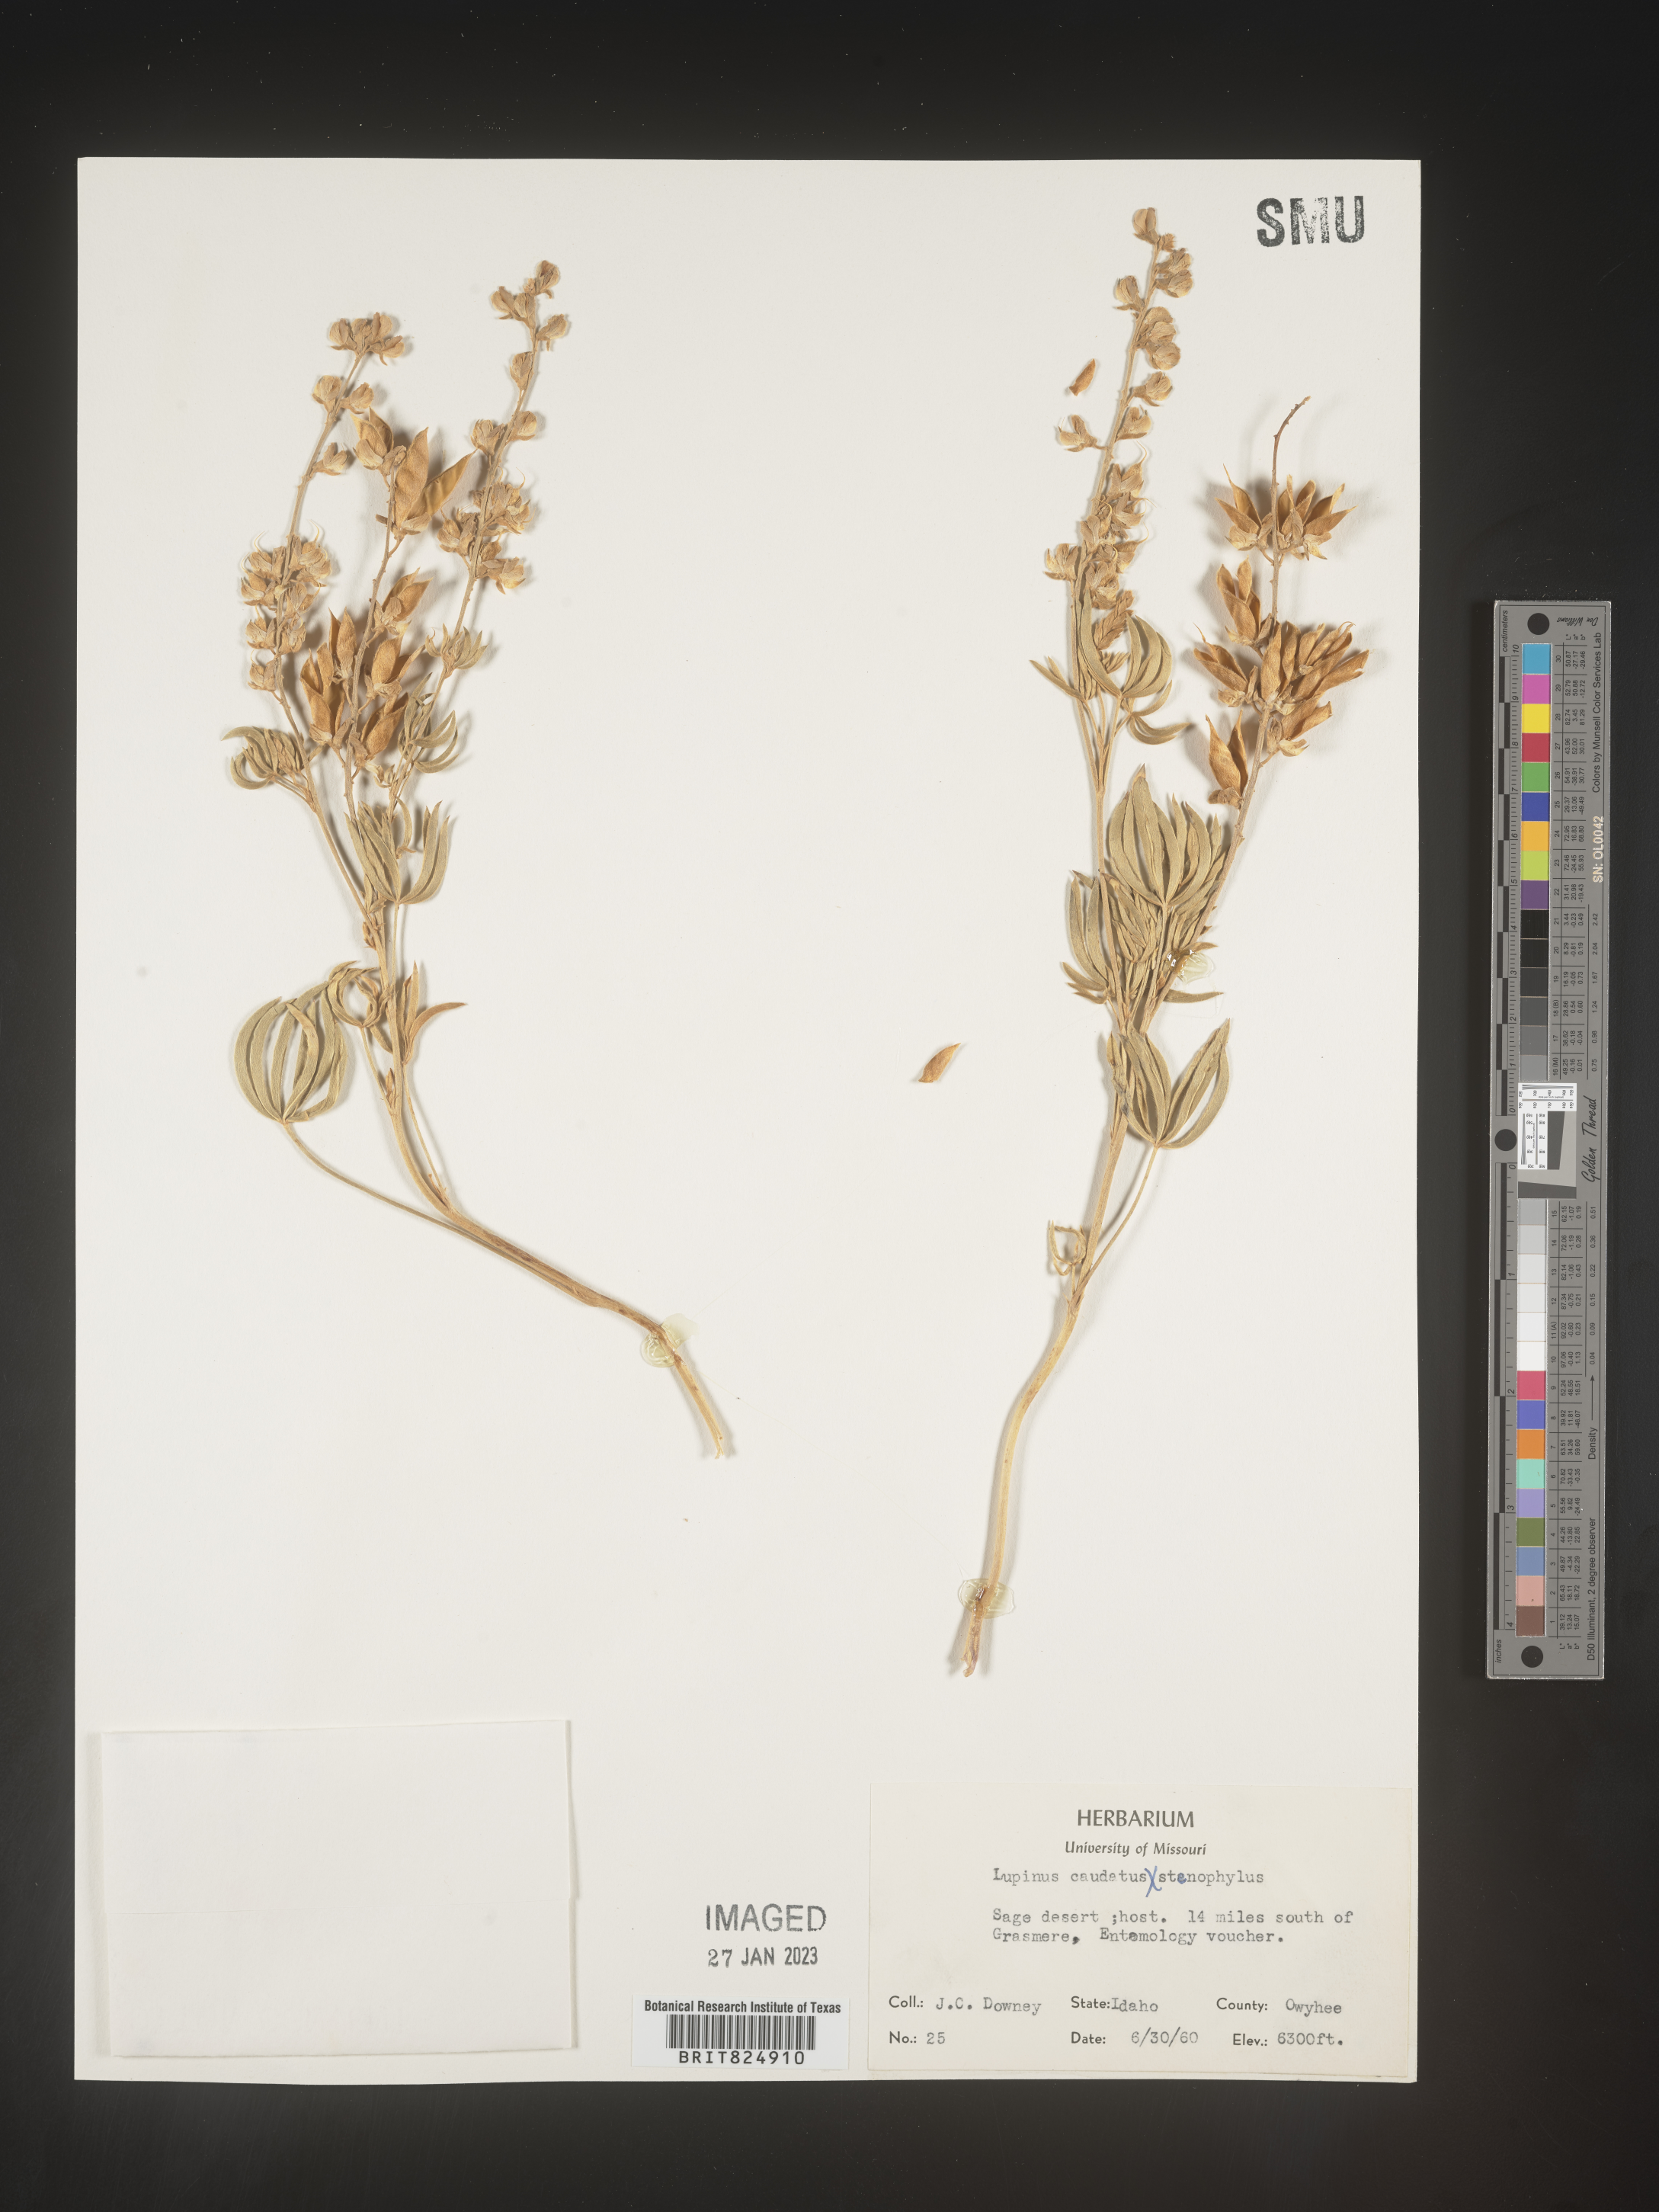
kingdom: Plantae
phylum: Tracheophyta
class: Magnoliopsida
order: Fabales
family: Fabaceae
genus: Lupinus
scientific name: Lupinus caudatus
